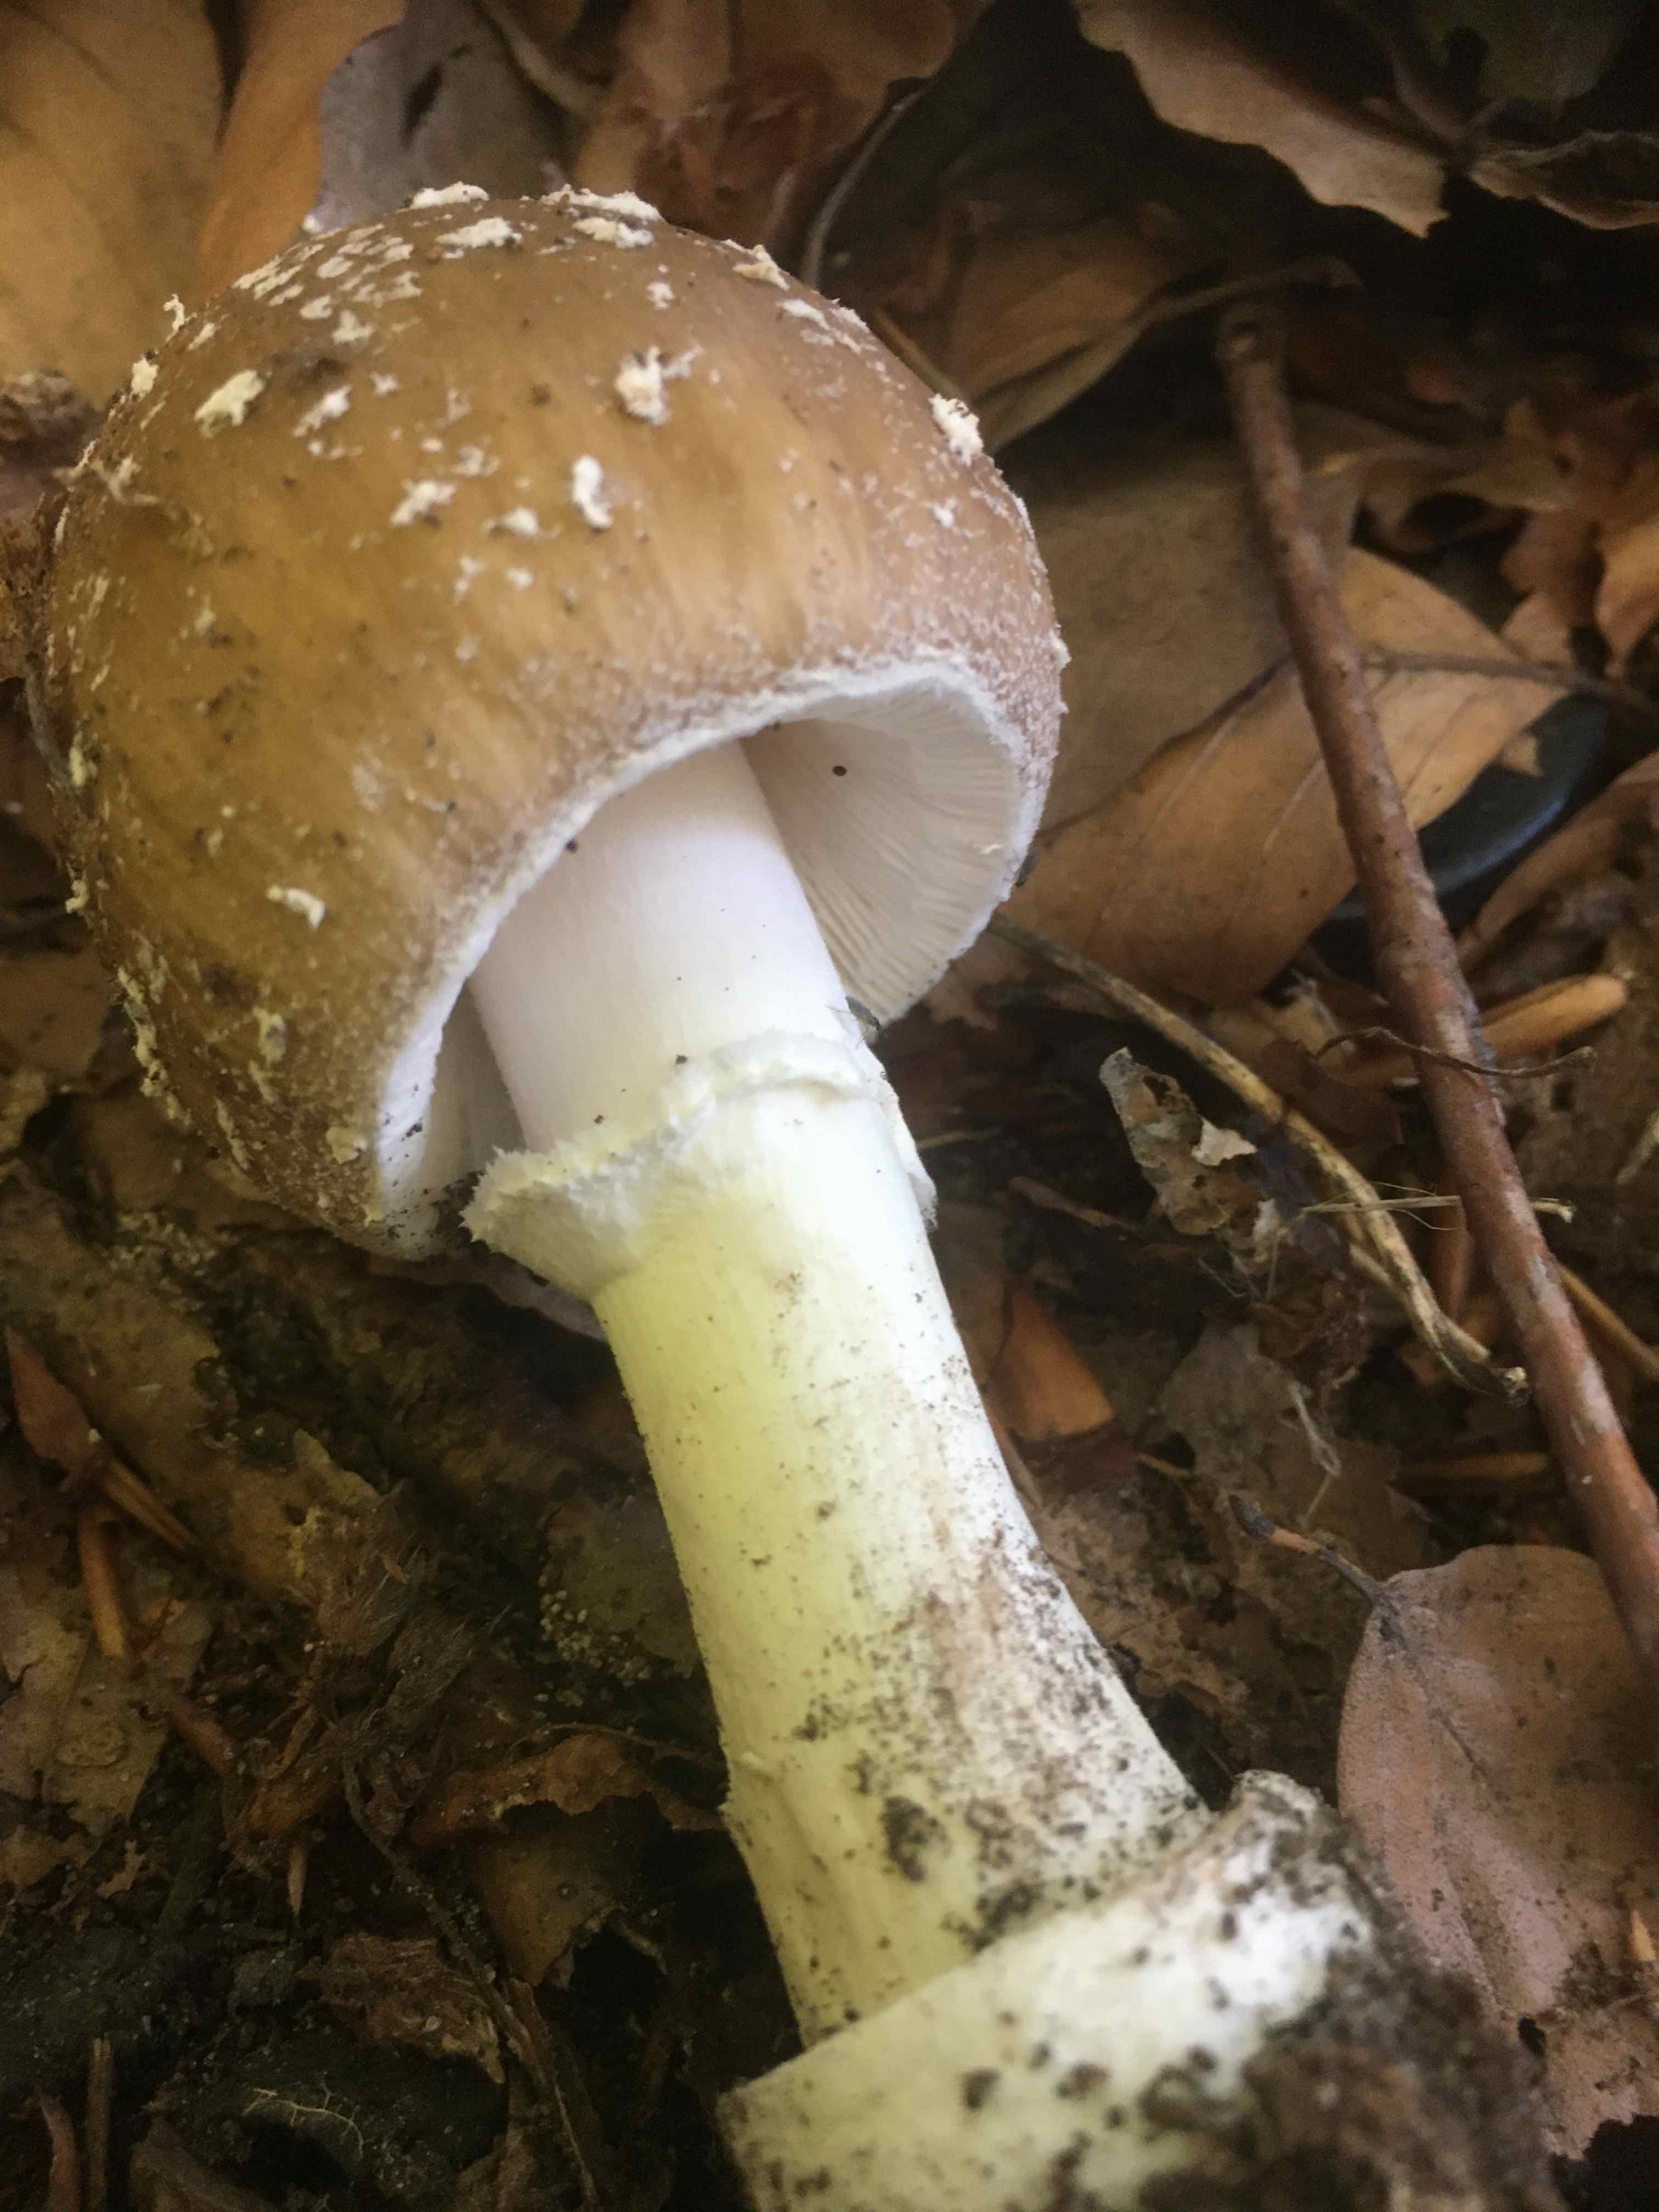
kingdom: Fungi
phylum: Basidiomycota
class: Agaricomycetes
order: Agaricales
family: Amanitaceae
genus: Amanita
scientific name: Amanita pantherina
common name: panter-fluesvamp
